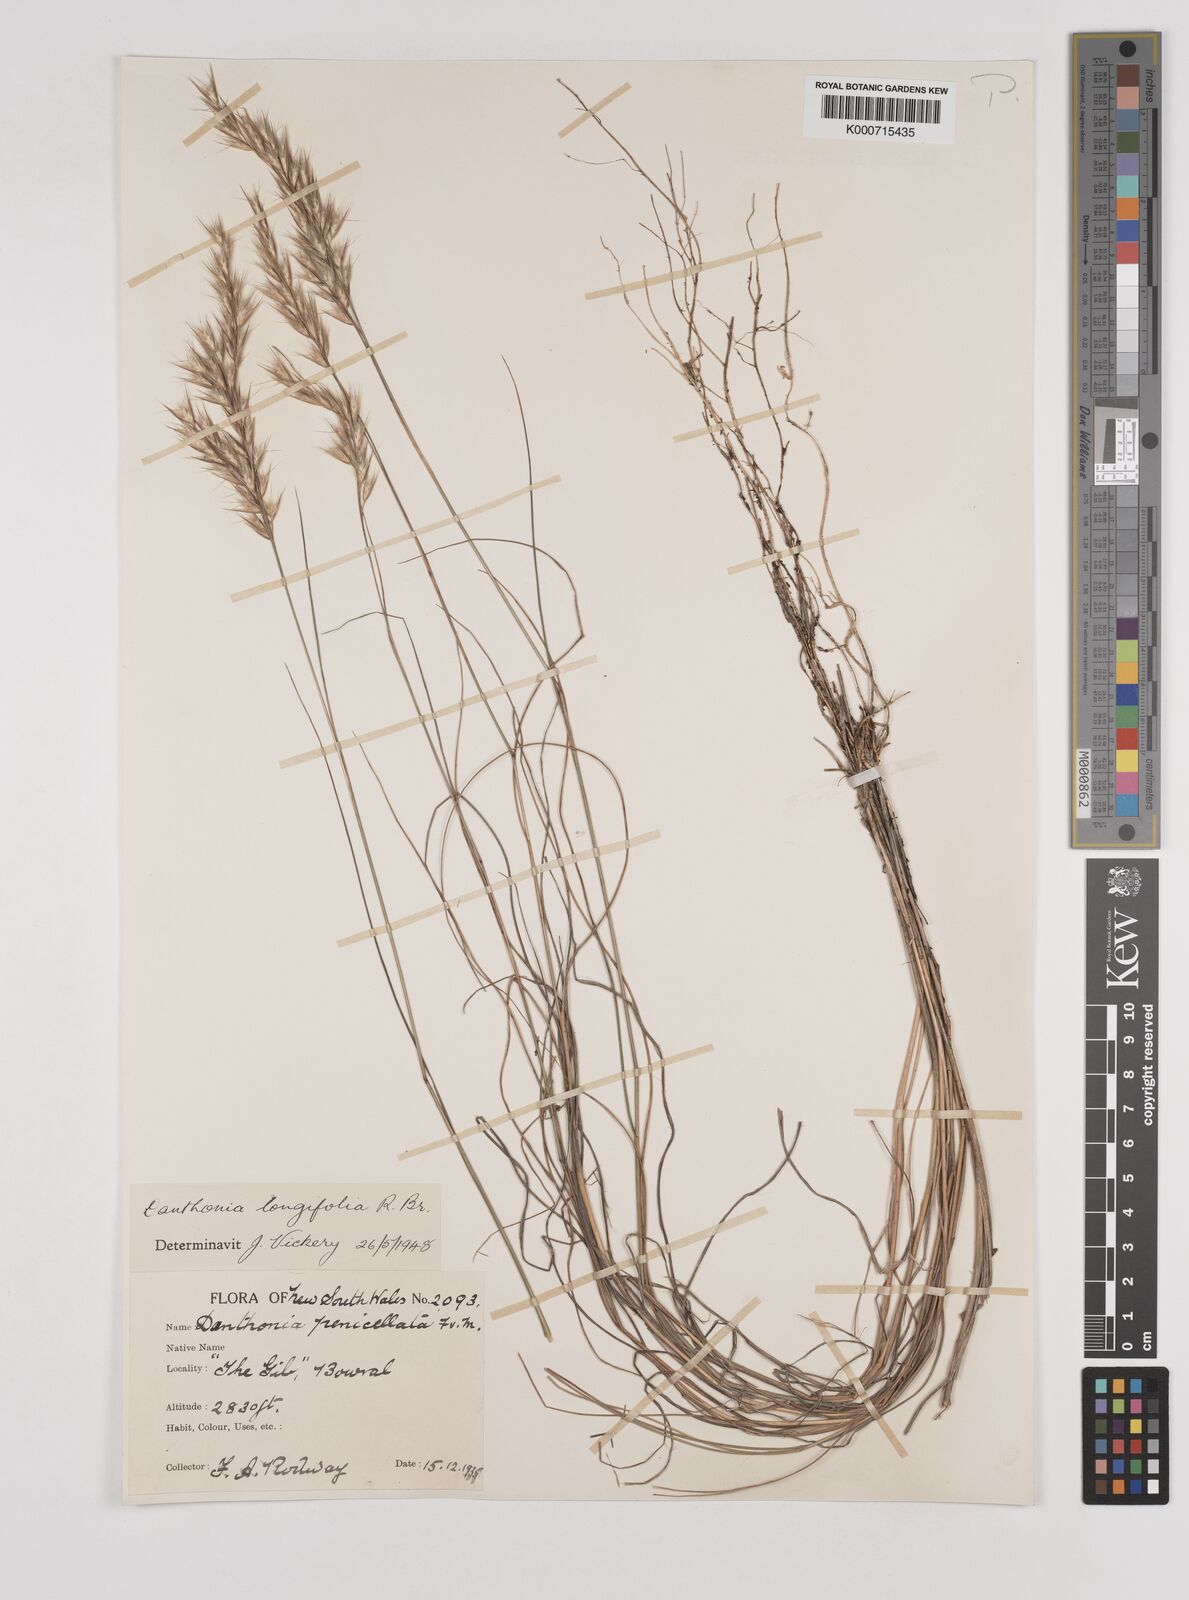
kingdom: Plantae
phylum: Tracheophyta
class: Liliopsida
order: Poales
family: Poaceae
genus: Rytidosperma
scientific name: Rytidosperma longifolium
